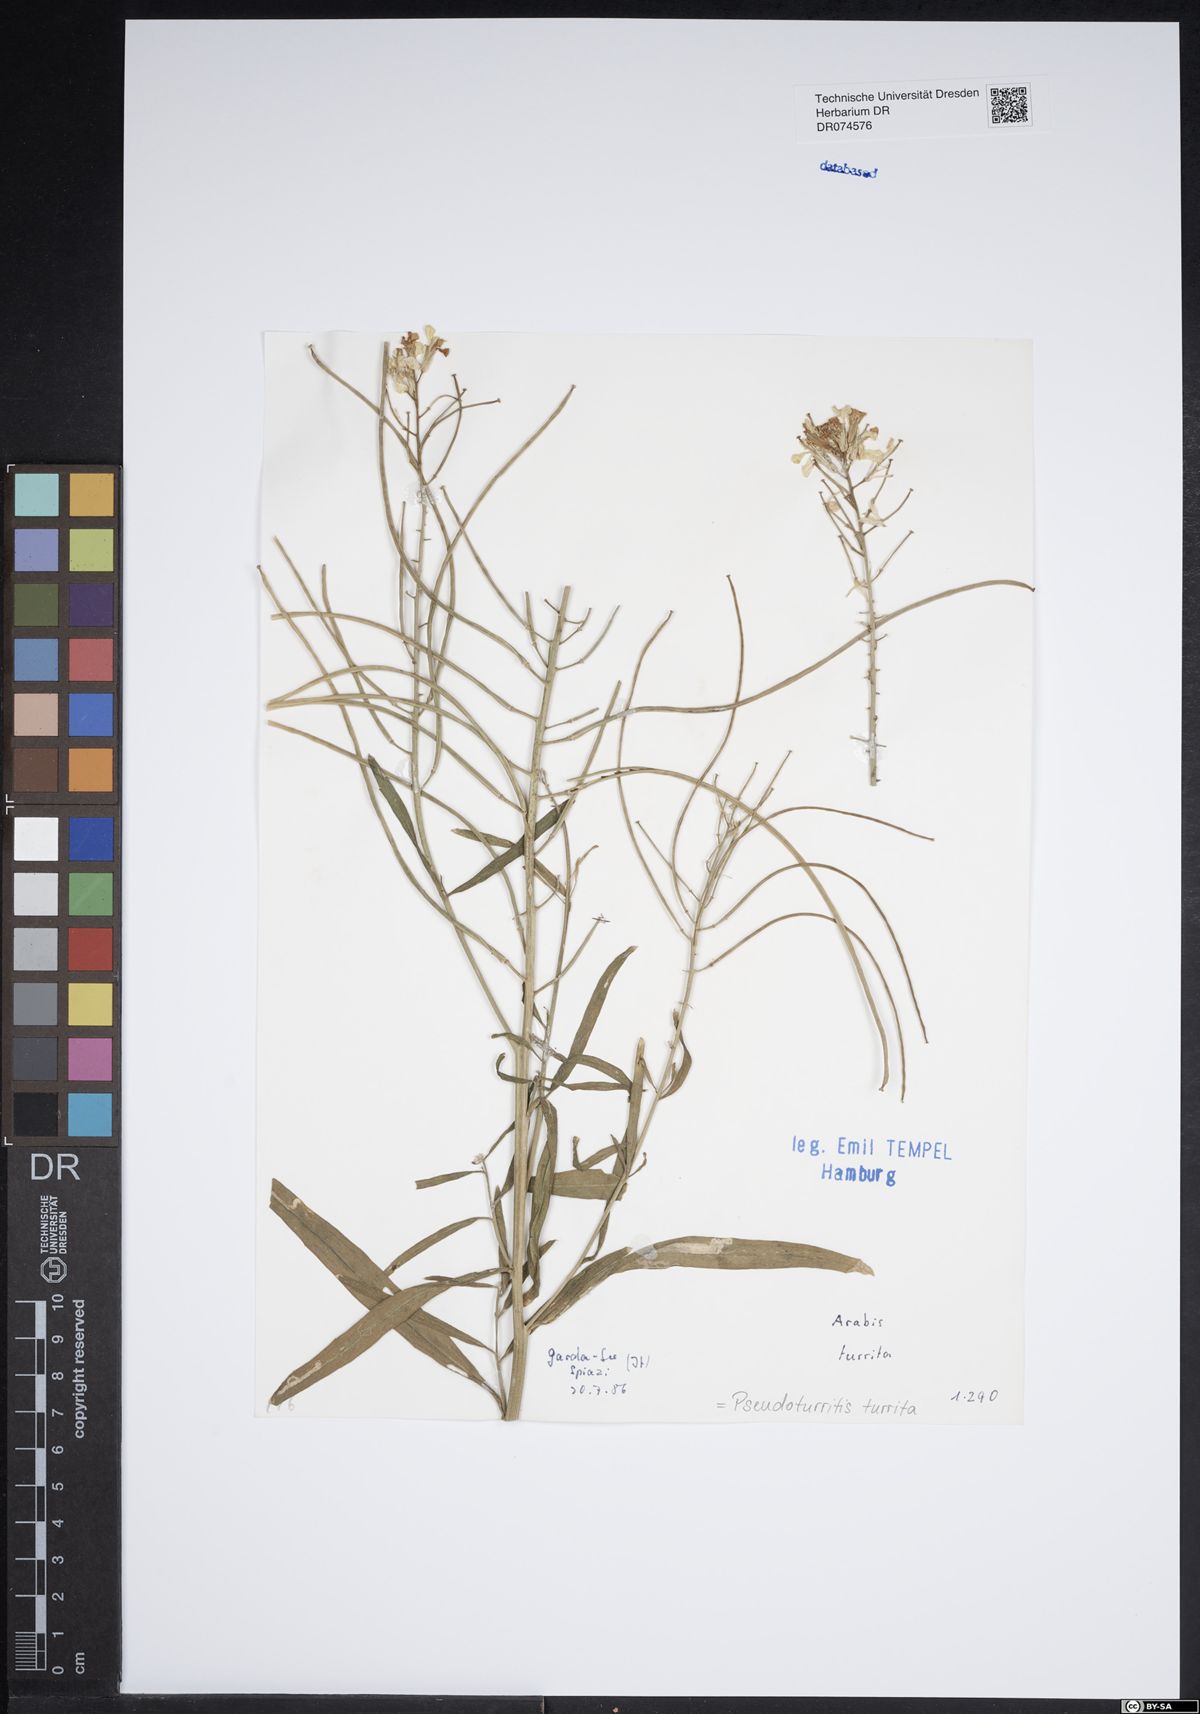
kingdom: Plantae
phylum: Tracheophyta
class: Magnoliopsida
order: Brassicales
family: Brassicaceae
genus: Pseudoturritis
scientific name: Pseudoturritis turrita
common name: Tower cress
